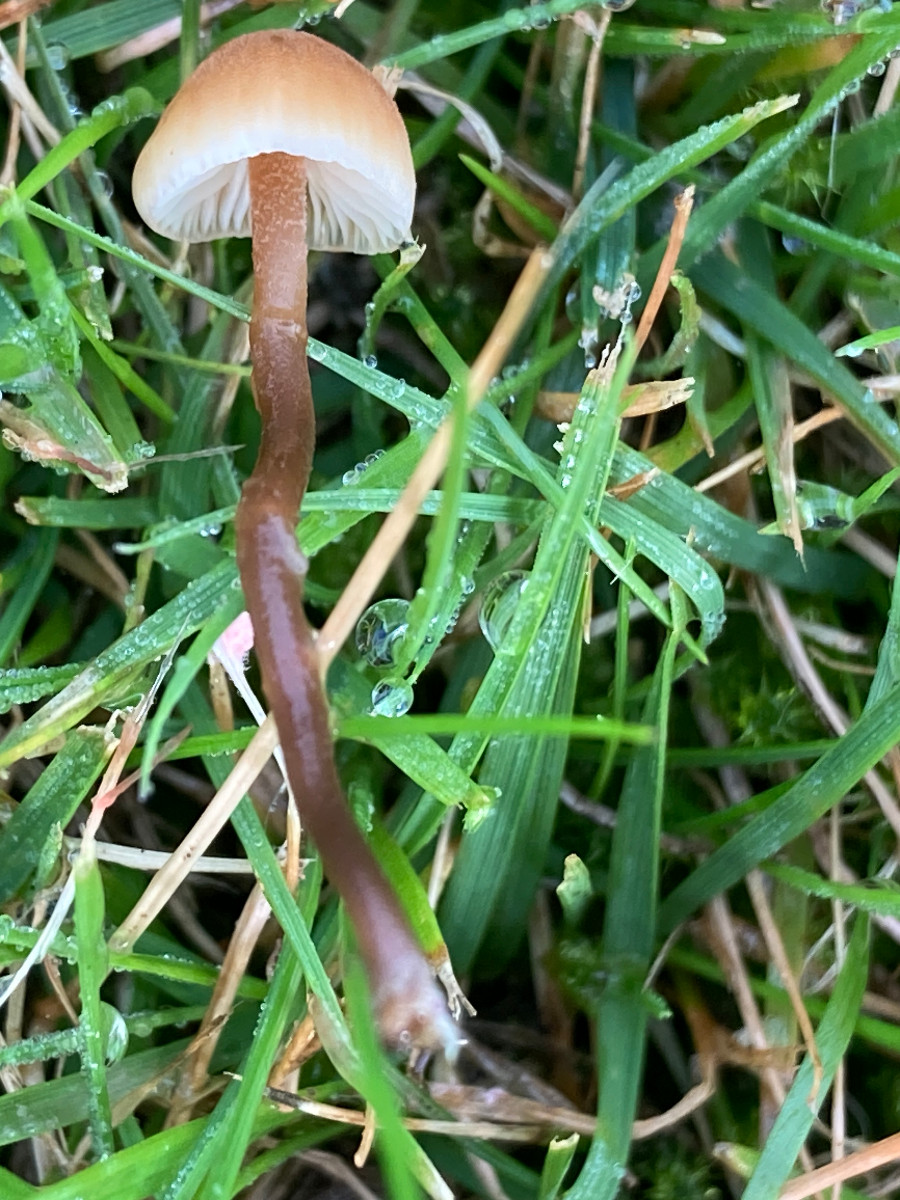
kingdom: Fungi
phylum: Basidiomycota
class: Agaricomycetes
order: Agaricales
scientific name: Agaricales
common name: champignonordenen
